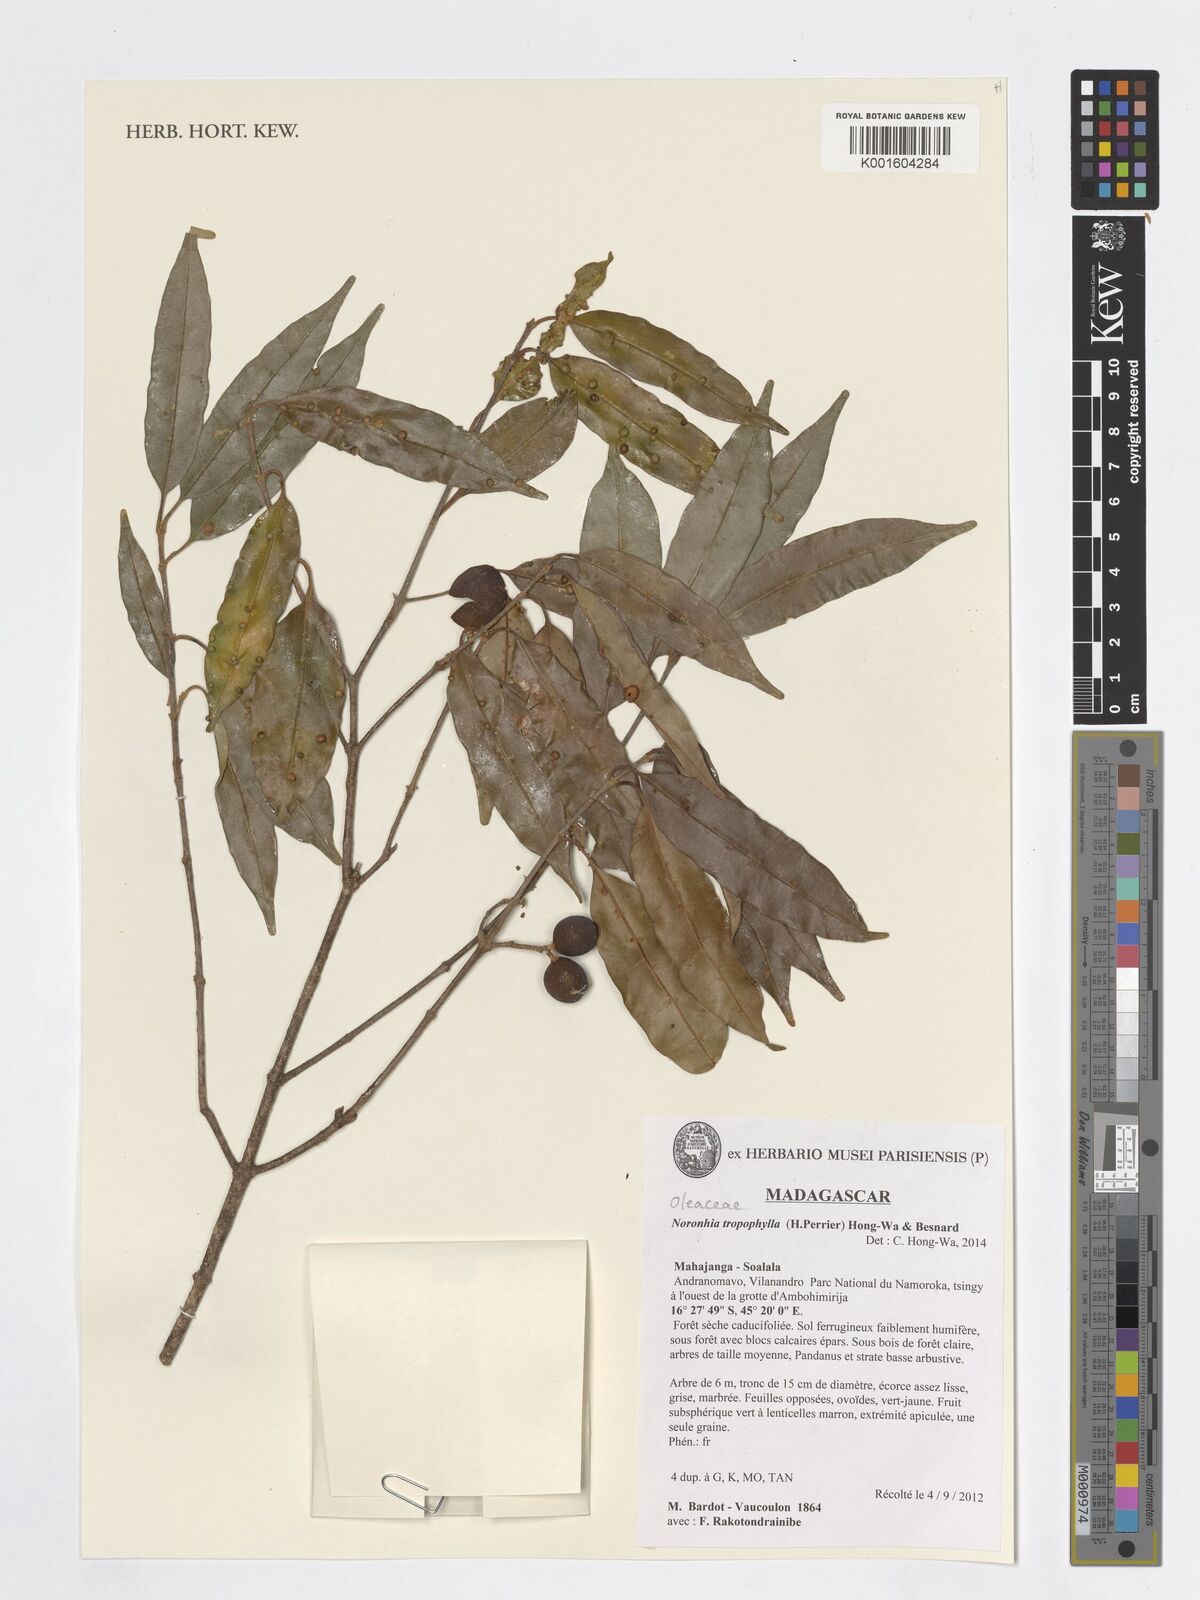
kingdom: Plantae
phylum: Tracheophyta
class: Magnoliopsida
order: Lamiales
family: Oleaceae
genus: Noronhia
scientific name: Noronhia tropophylla
